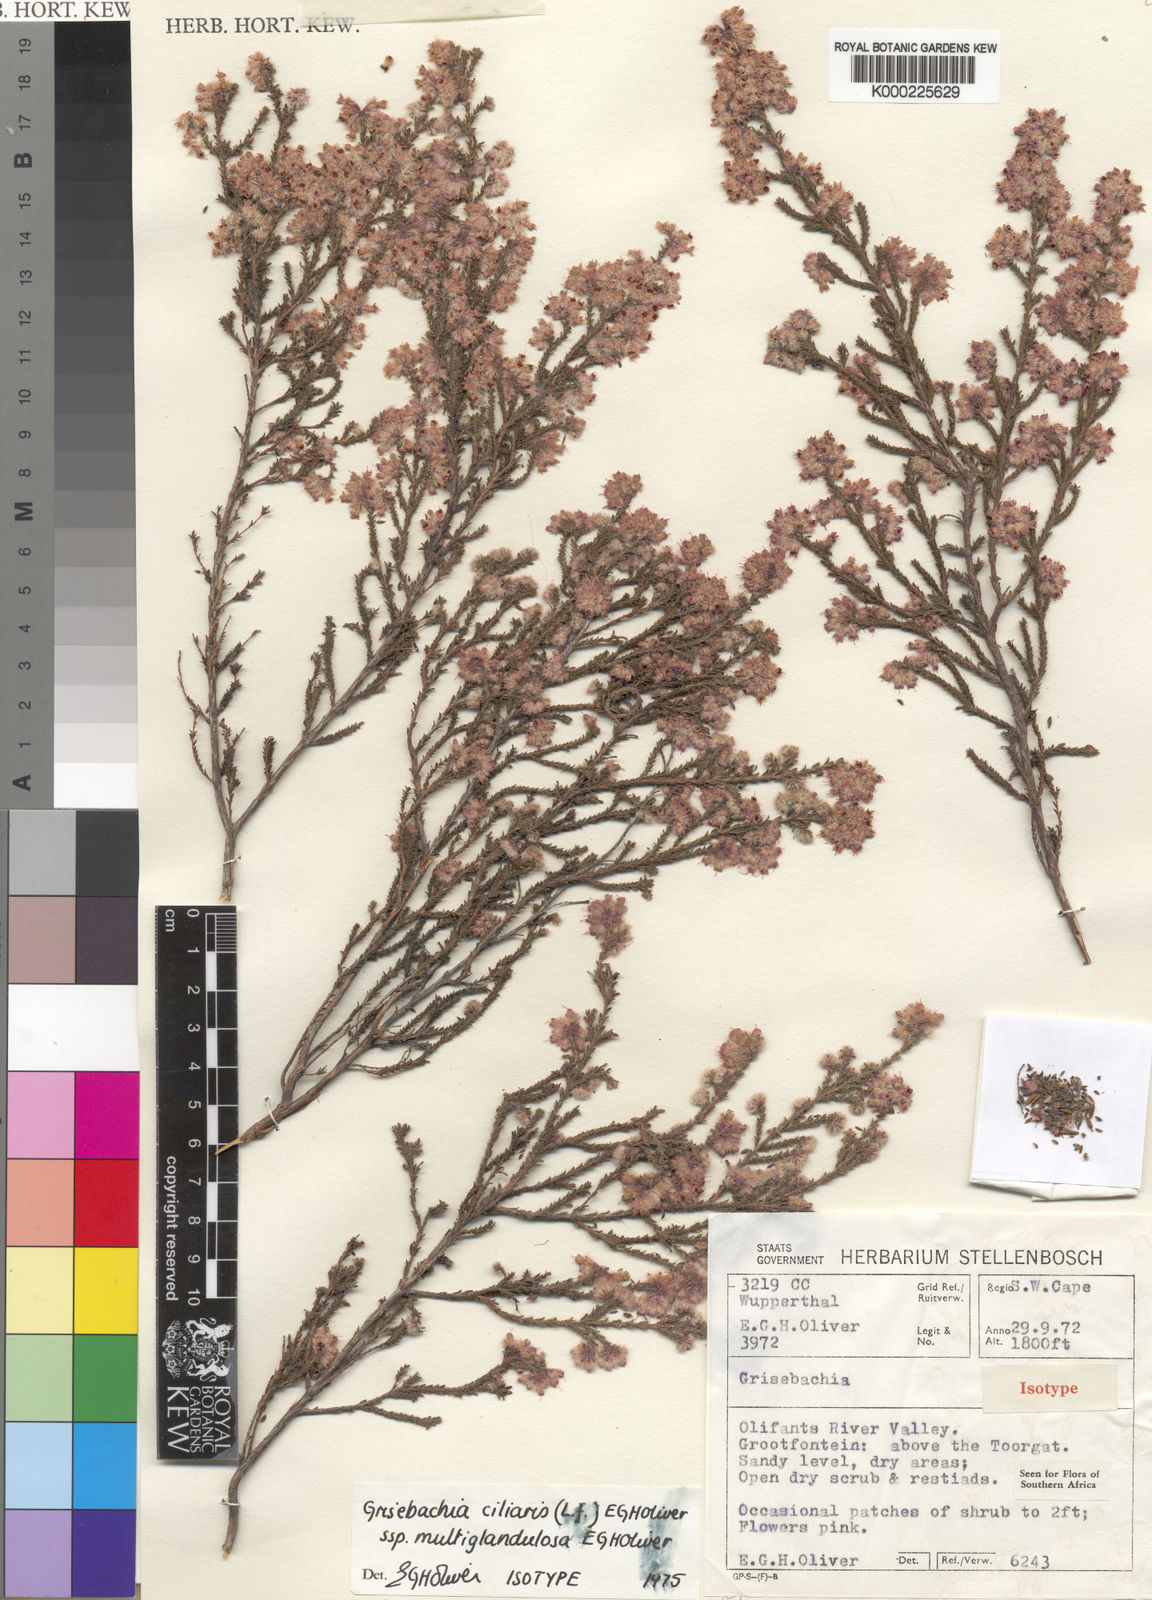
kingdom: Plantae
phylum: Tracheophyta
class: Magnoliopsida
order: Ericales
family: Ericaceae
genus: Erica
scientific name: Erica plumosa
